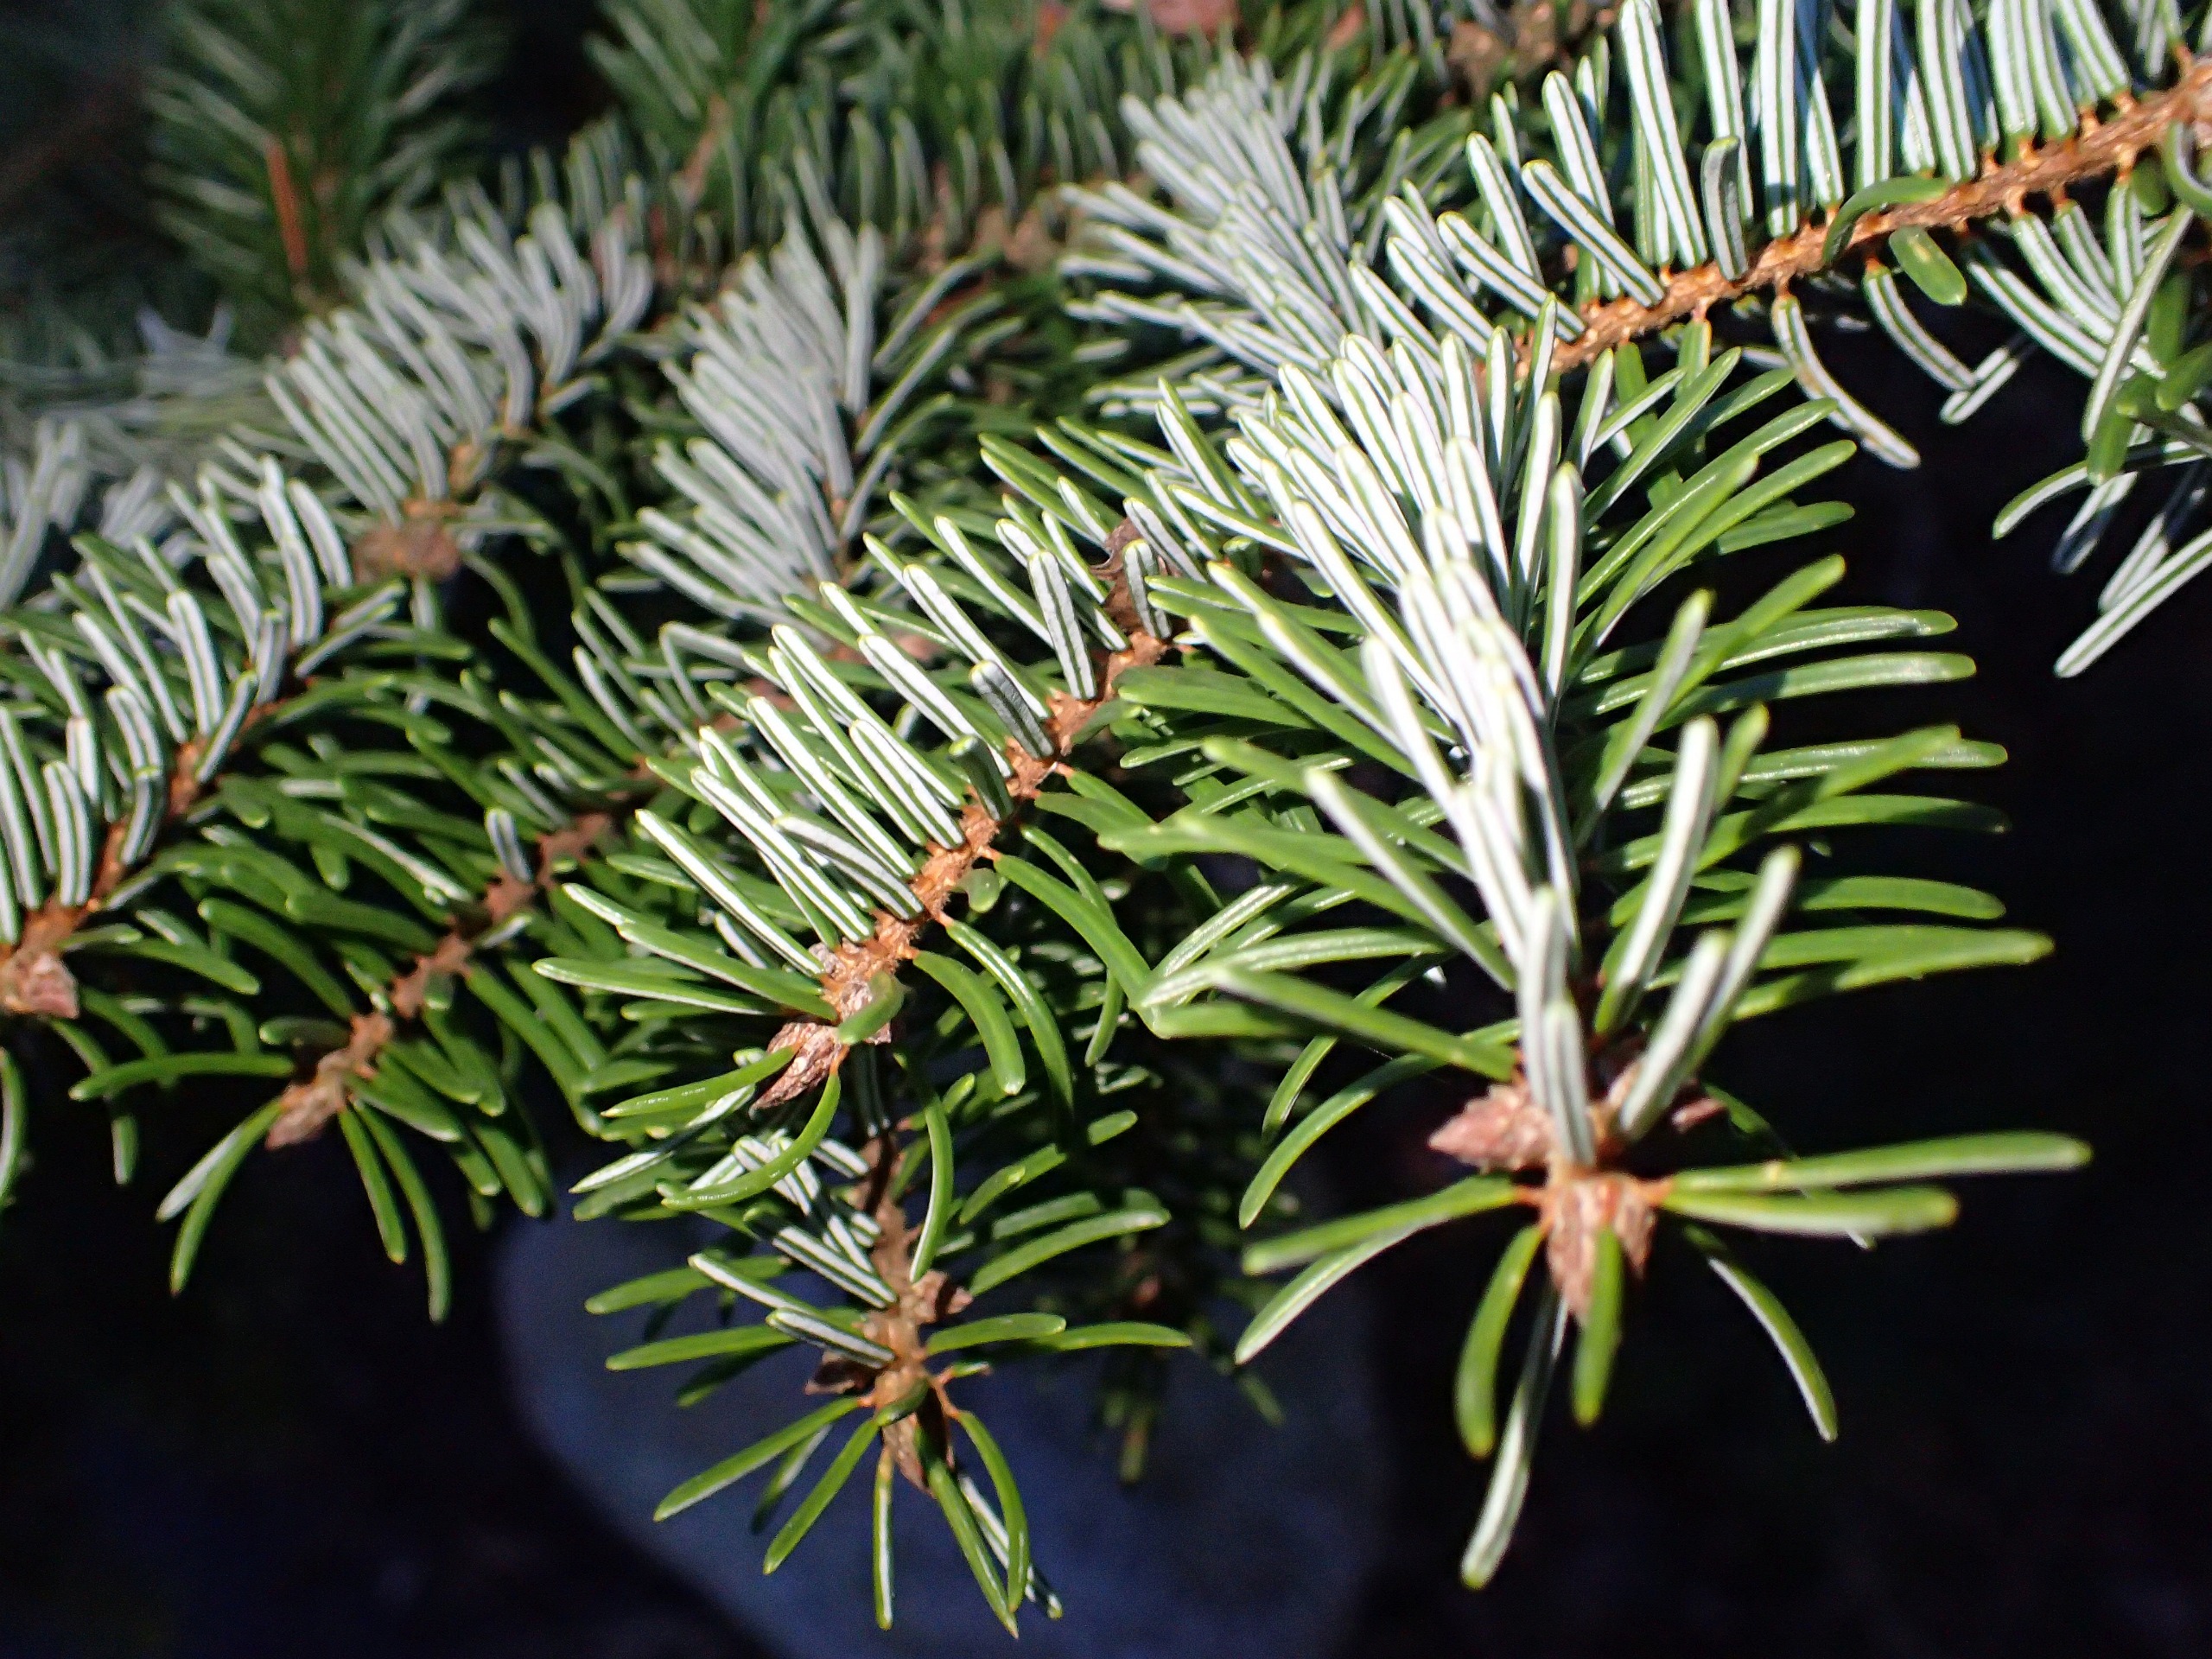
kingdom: Plantae
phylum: Tracheophyta
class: Pinopsida
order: Pinales
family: Pinaceae
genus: Picea
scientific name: Picea omorika
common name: Omorika-gran
